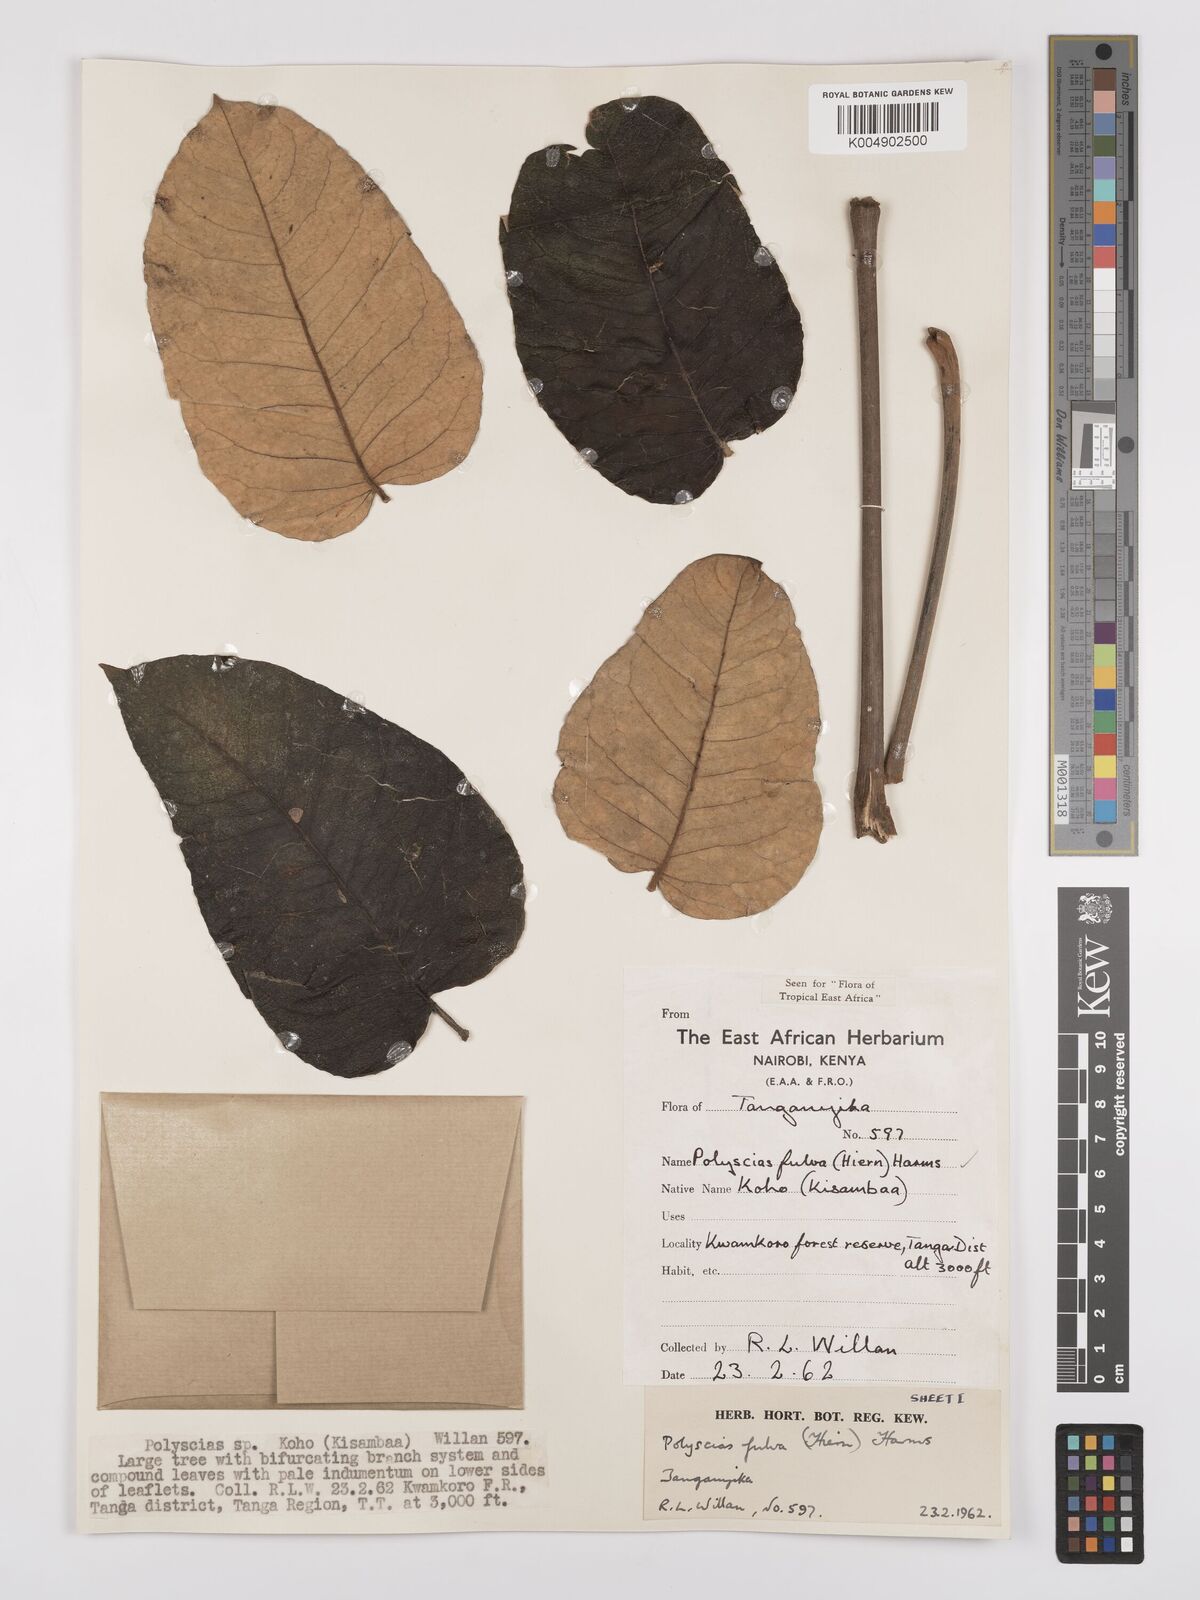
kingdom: Plantae
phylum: Tracheophyta
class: Magnoliopsida
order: Apiales
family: Araliaceae
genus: Polyscias
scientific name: Polyscias fulva
